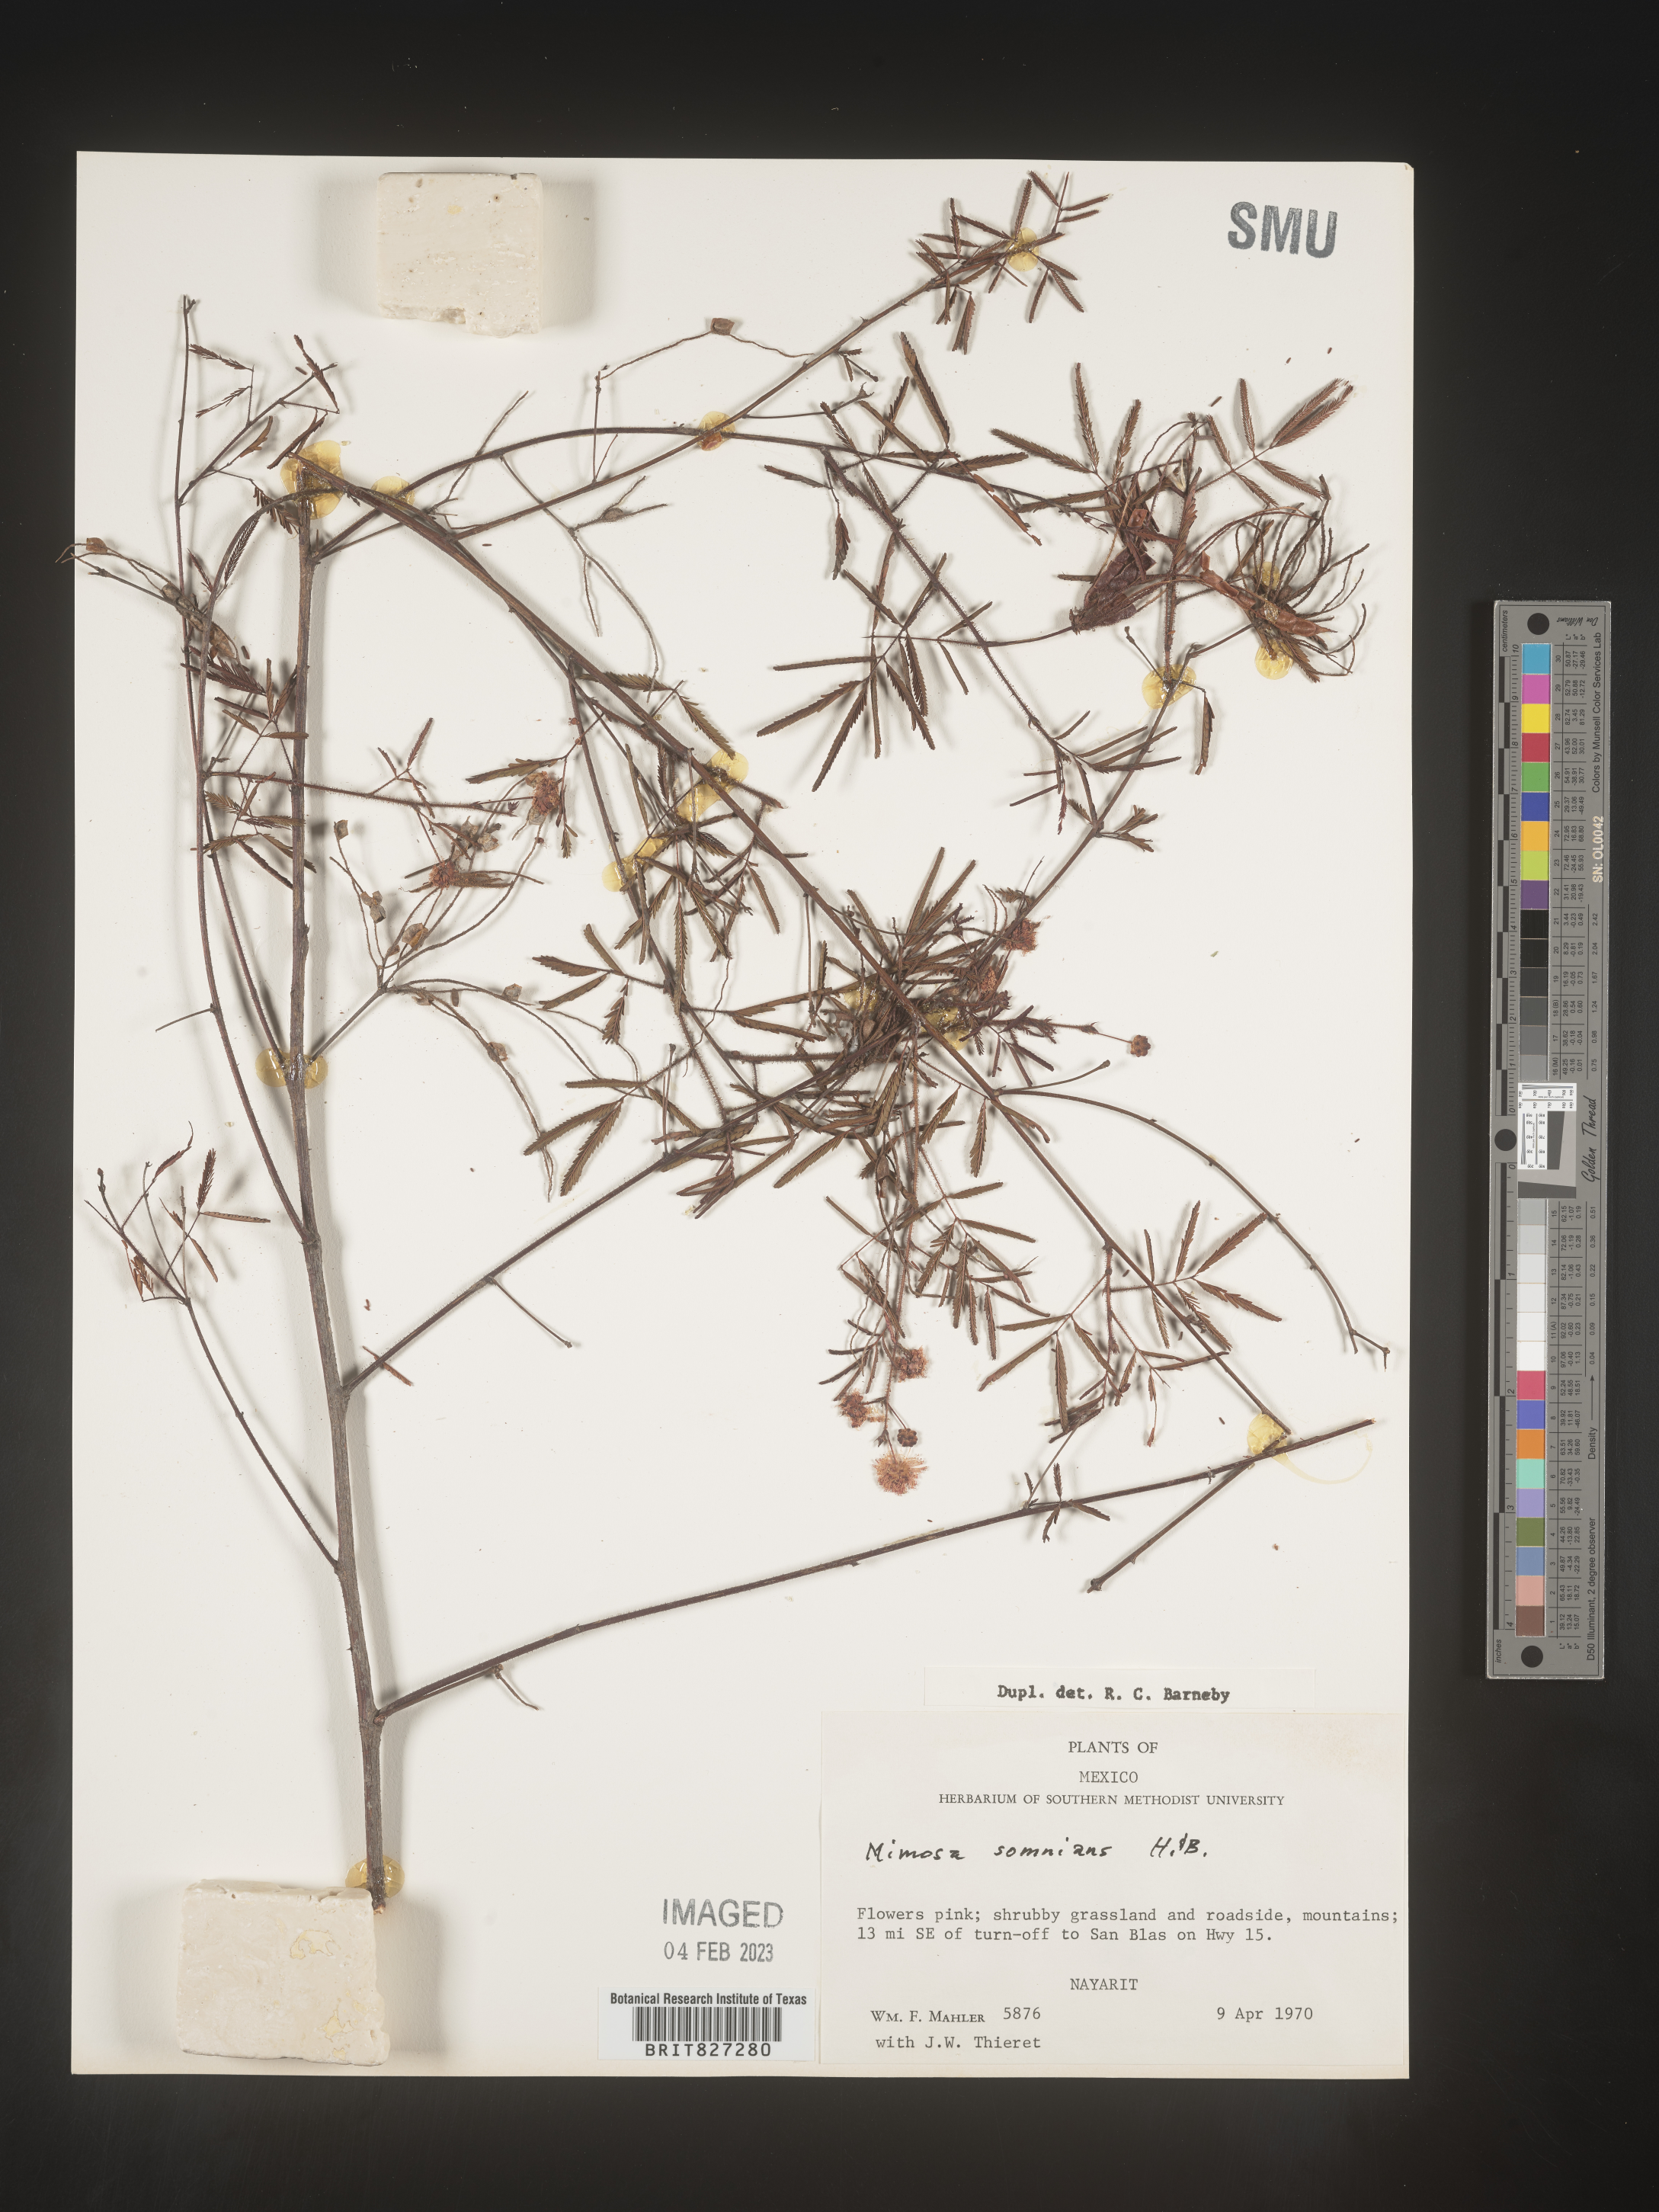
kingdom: Plantae
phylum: Tracheophyta
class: Magnoliopsida
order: Fabales
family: Fabaceae
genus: Mimosa
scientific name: Mimosa
